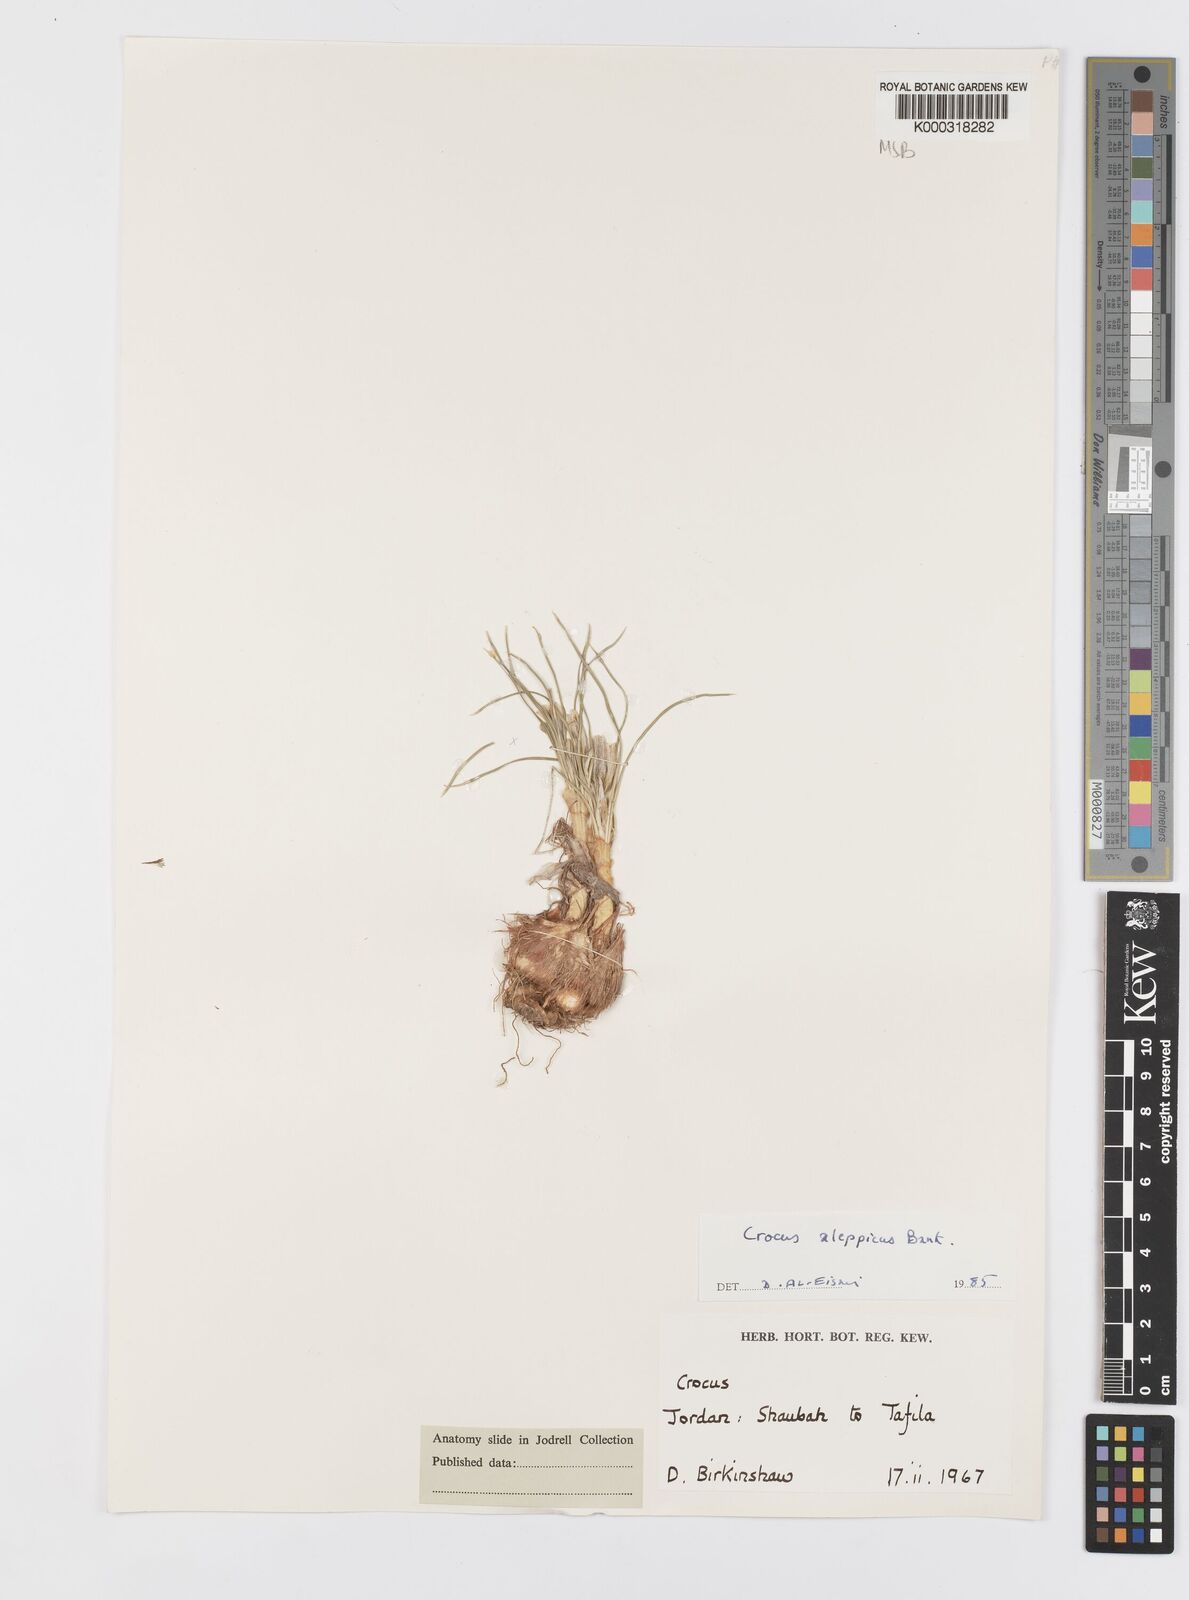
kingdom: Plantae
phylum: Tracheophyta
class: Liliopsida
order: Asparagales
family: Iridaceae
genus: Crocus
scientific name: Crocus aleppicus
